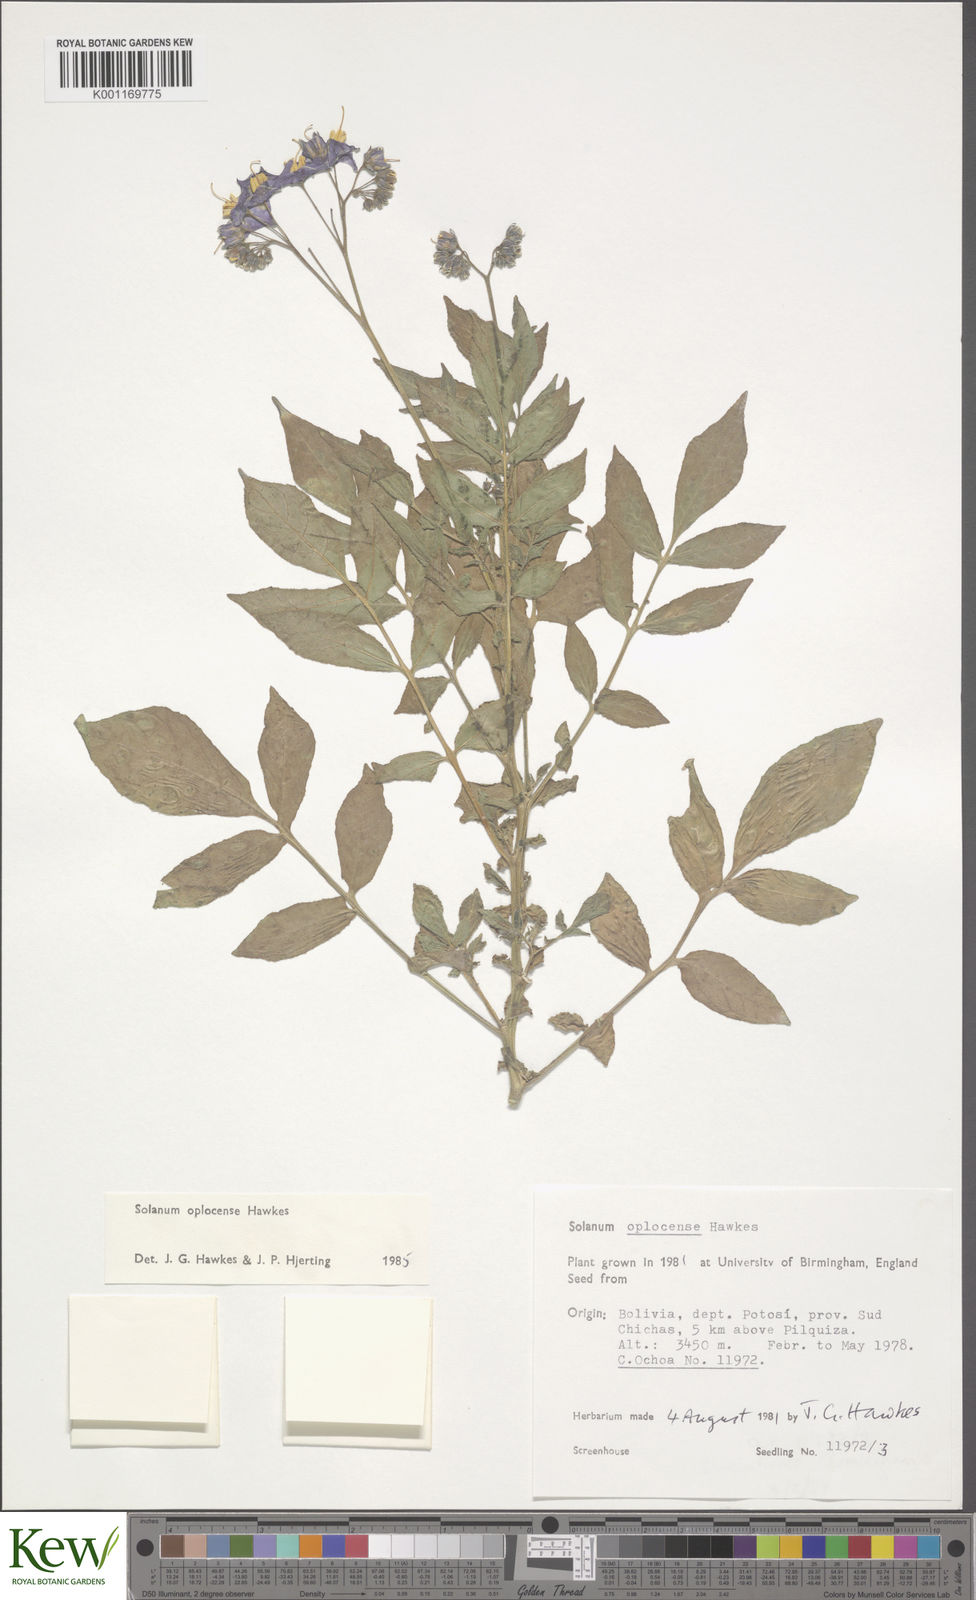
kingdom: Plantae
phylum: Tracheophyta
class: Magnoliopsida
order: Solanales
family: Solanaceae
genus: Solanum
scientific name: Solanum brevicaule
